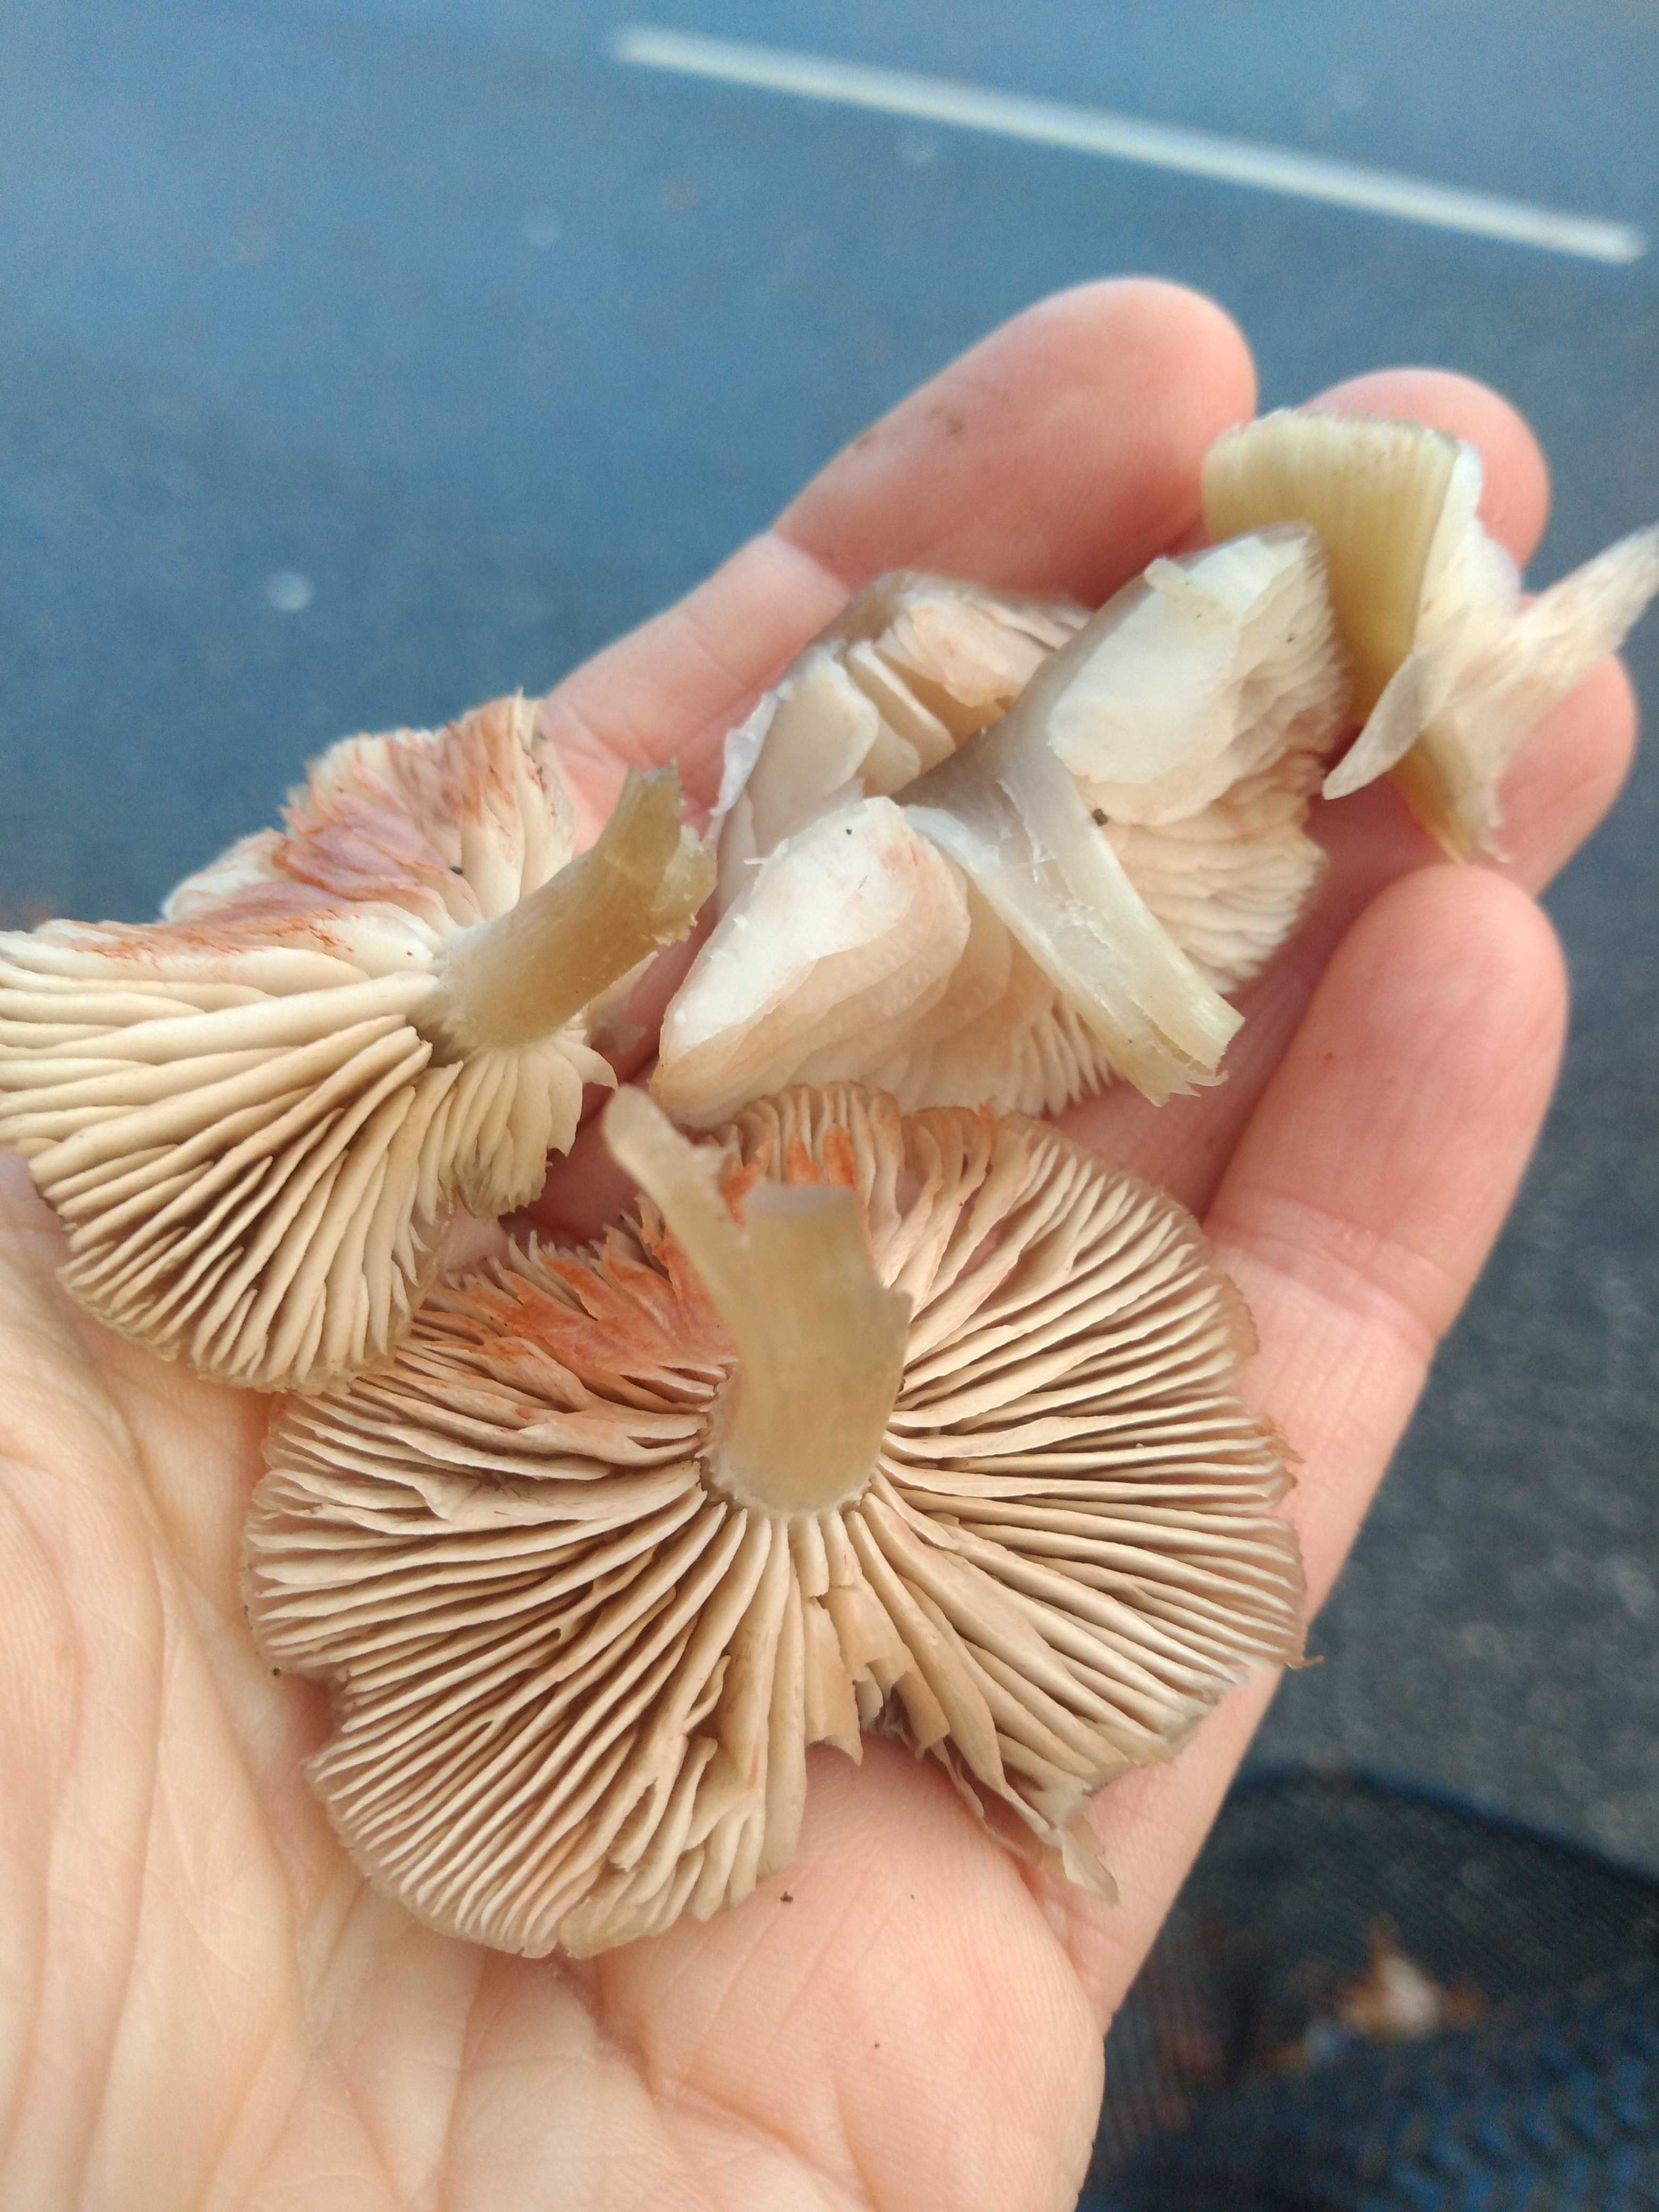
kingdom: Fungi
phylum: Basidiomycota
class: Agaricomycetes
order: Agaricales
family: Entolomataceae
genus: Entoloma
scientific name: Entoloma
